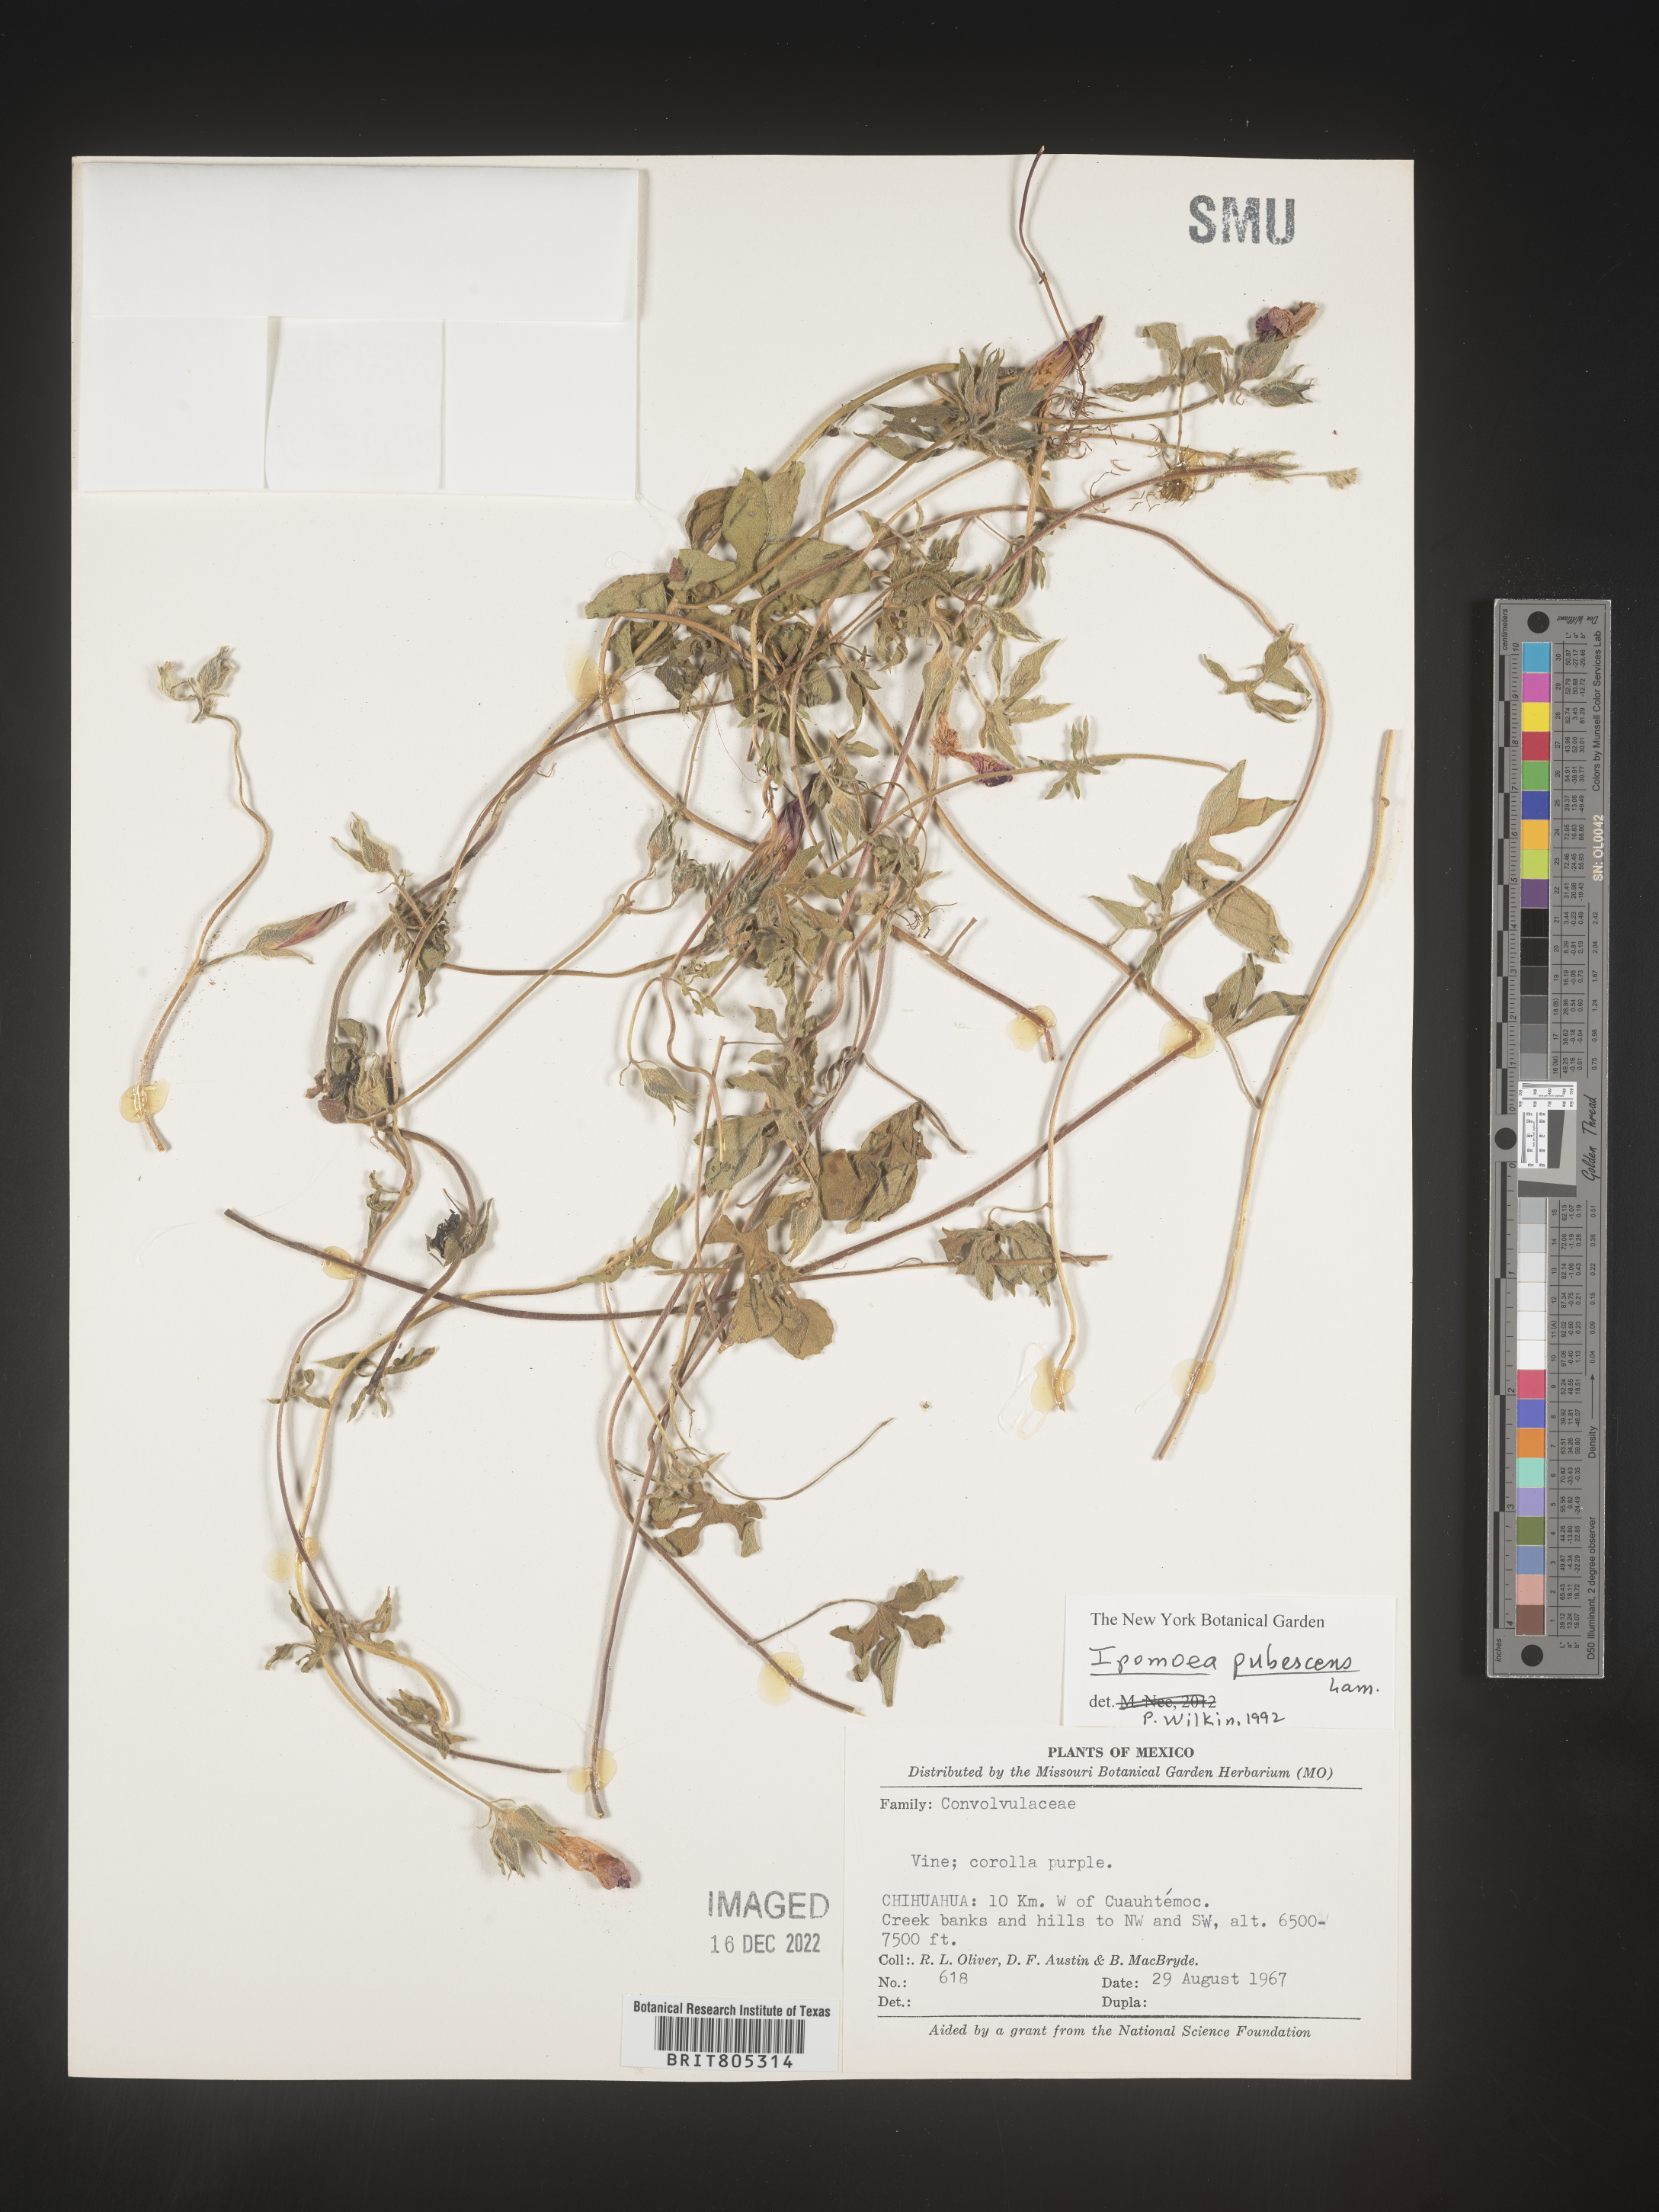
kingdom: Plantae
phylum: Tracheophyta
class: Magnoliopsida
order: Solanales
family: Convolvulaceae
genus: Ipomoea
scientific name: Ipomoea
